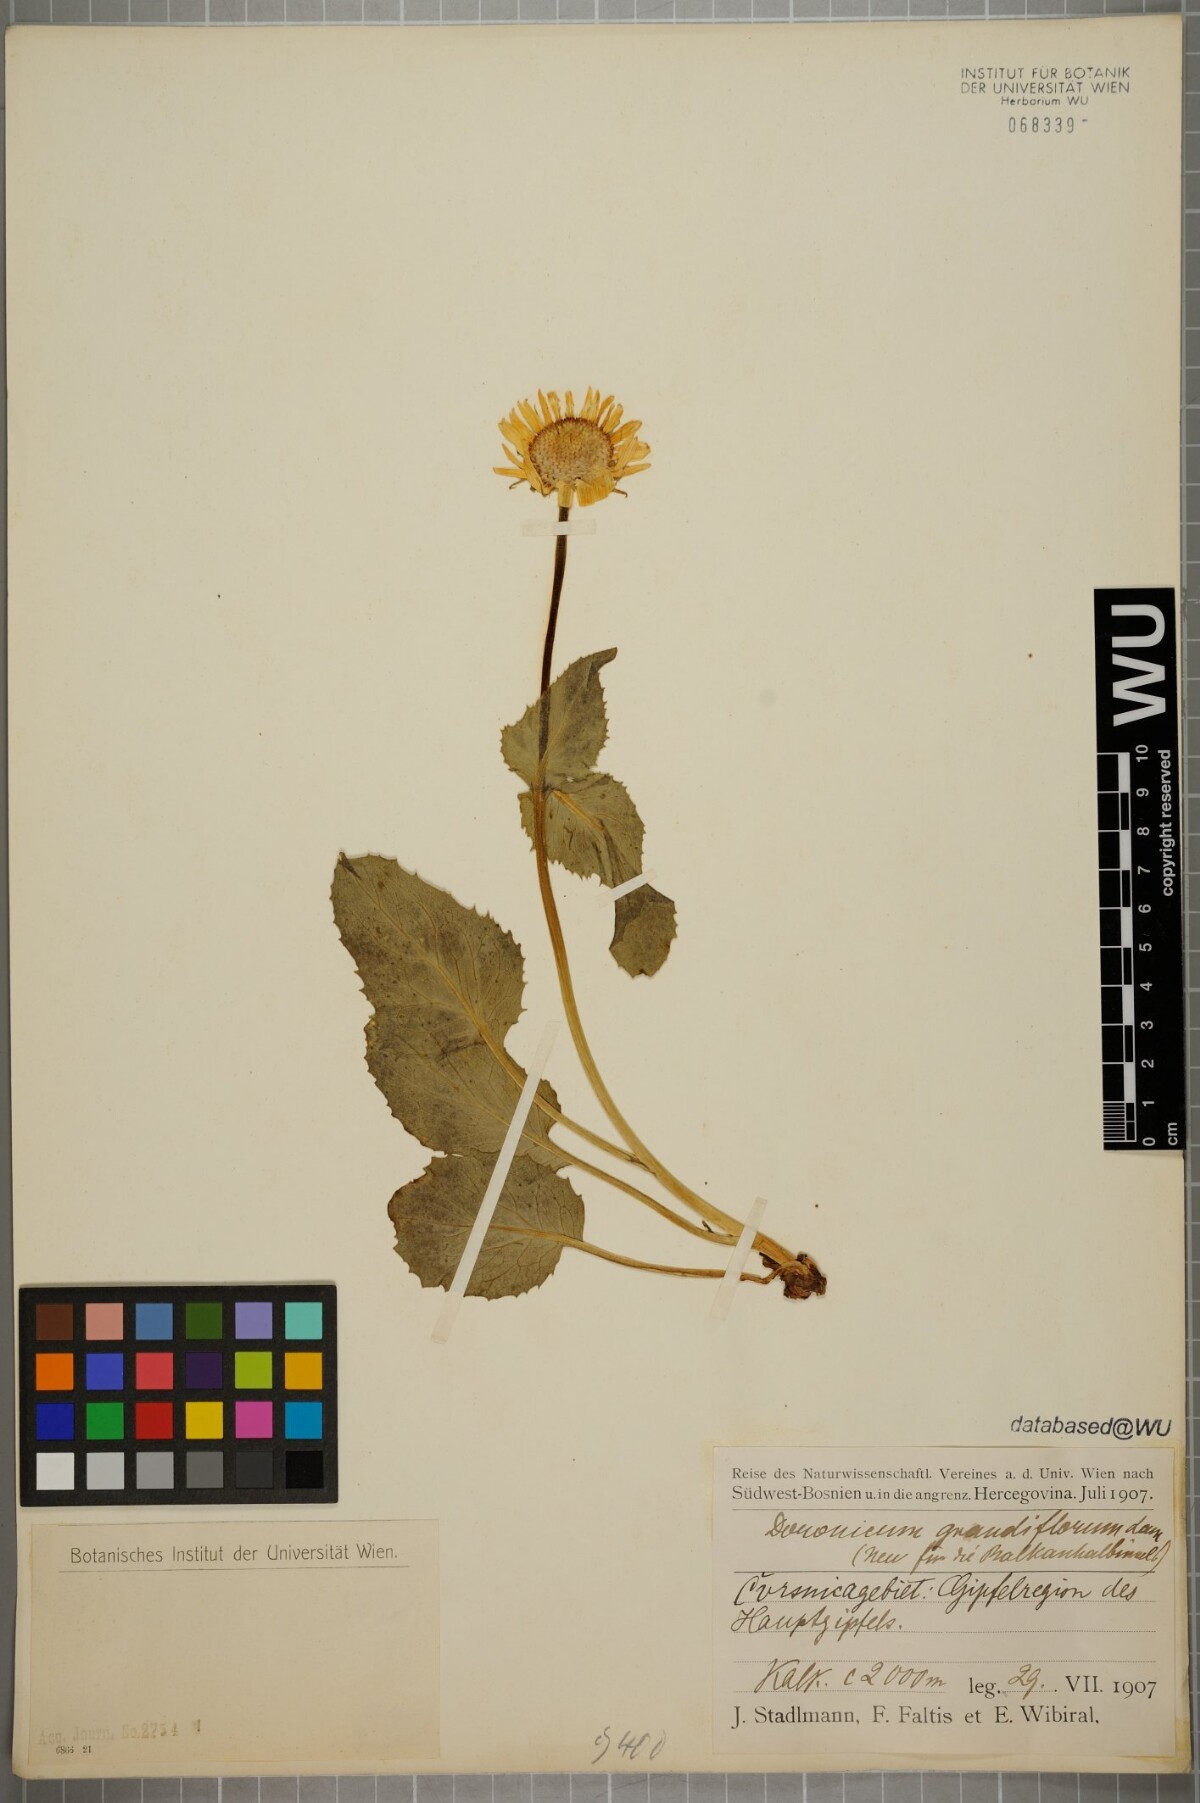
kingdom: Plantae
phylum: Tracheophyta
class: Magnoliopsida
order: Asterales
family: Asteraceae
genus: Doronicum
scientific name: Doronicum grandiflorum
